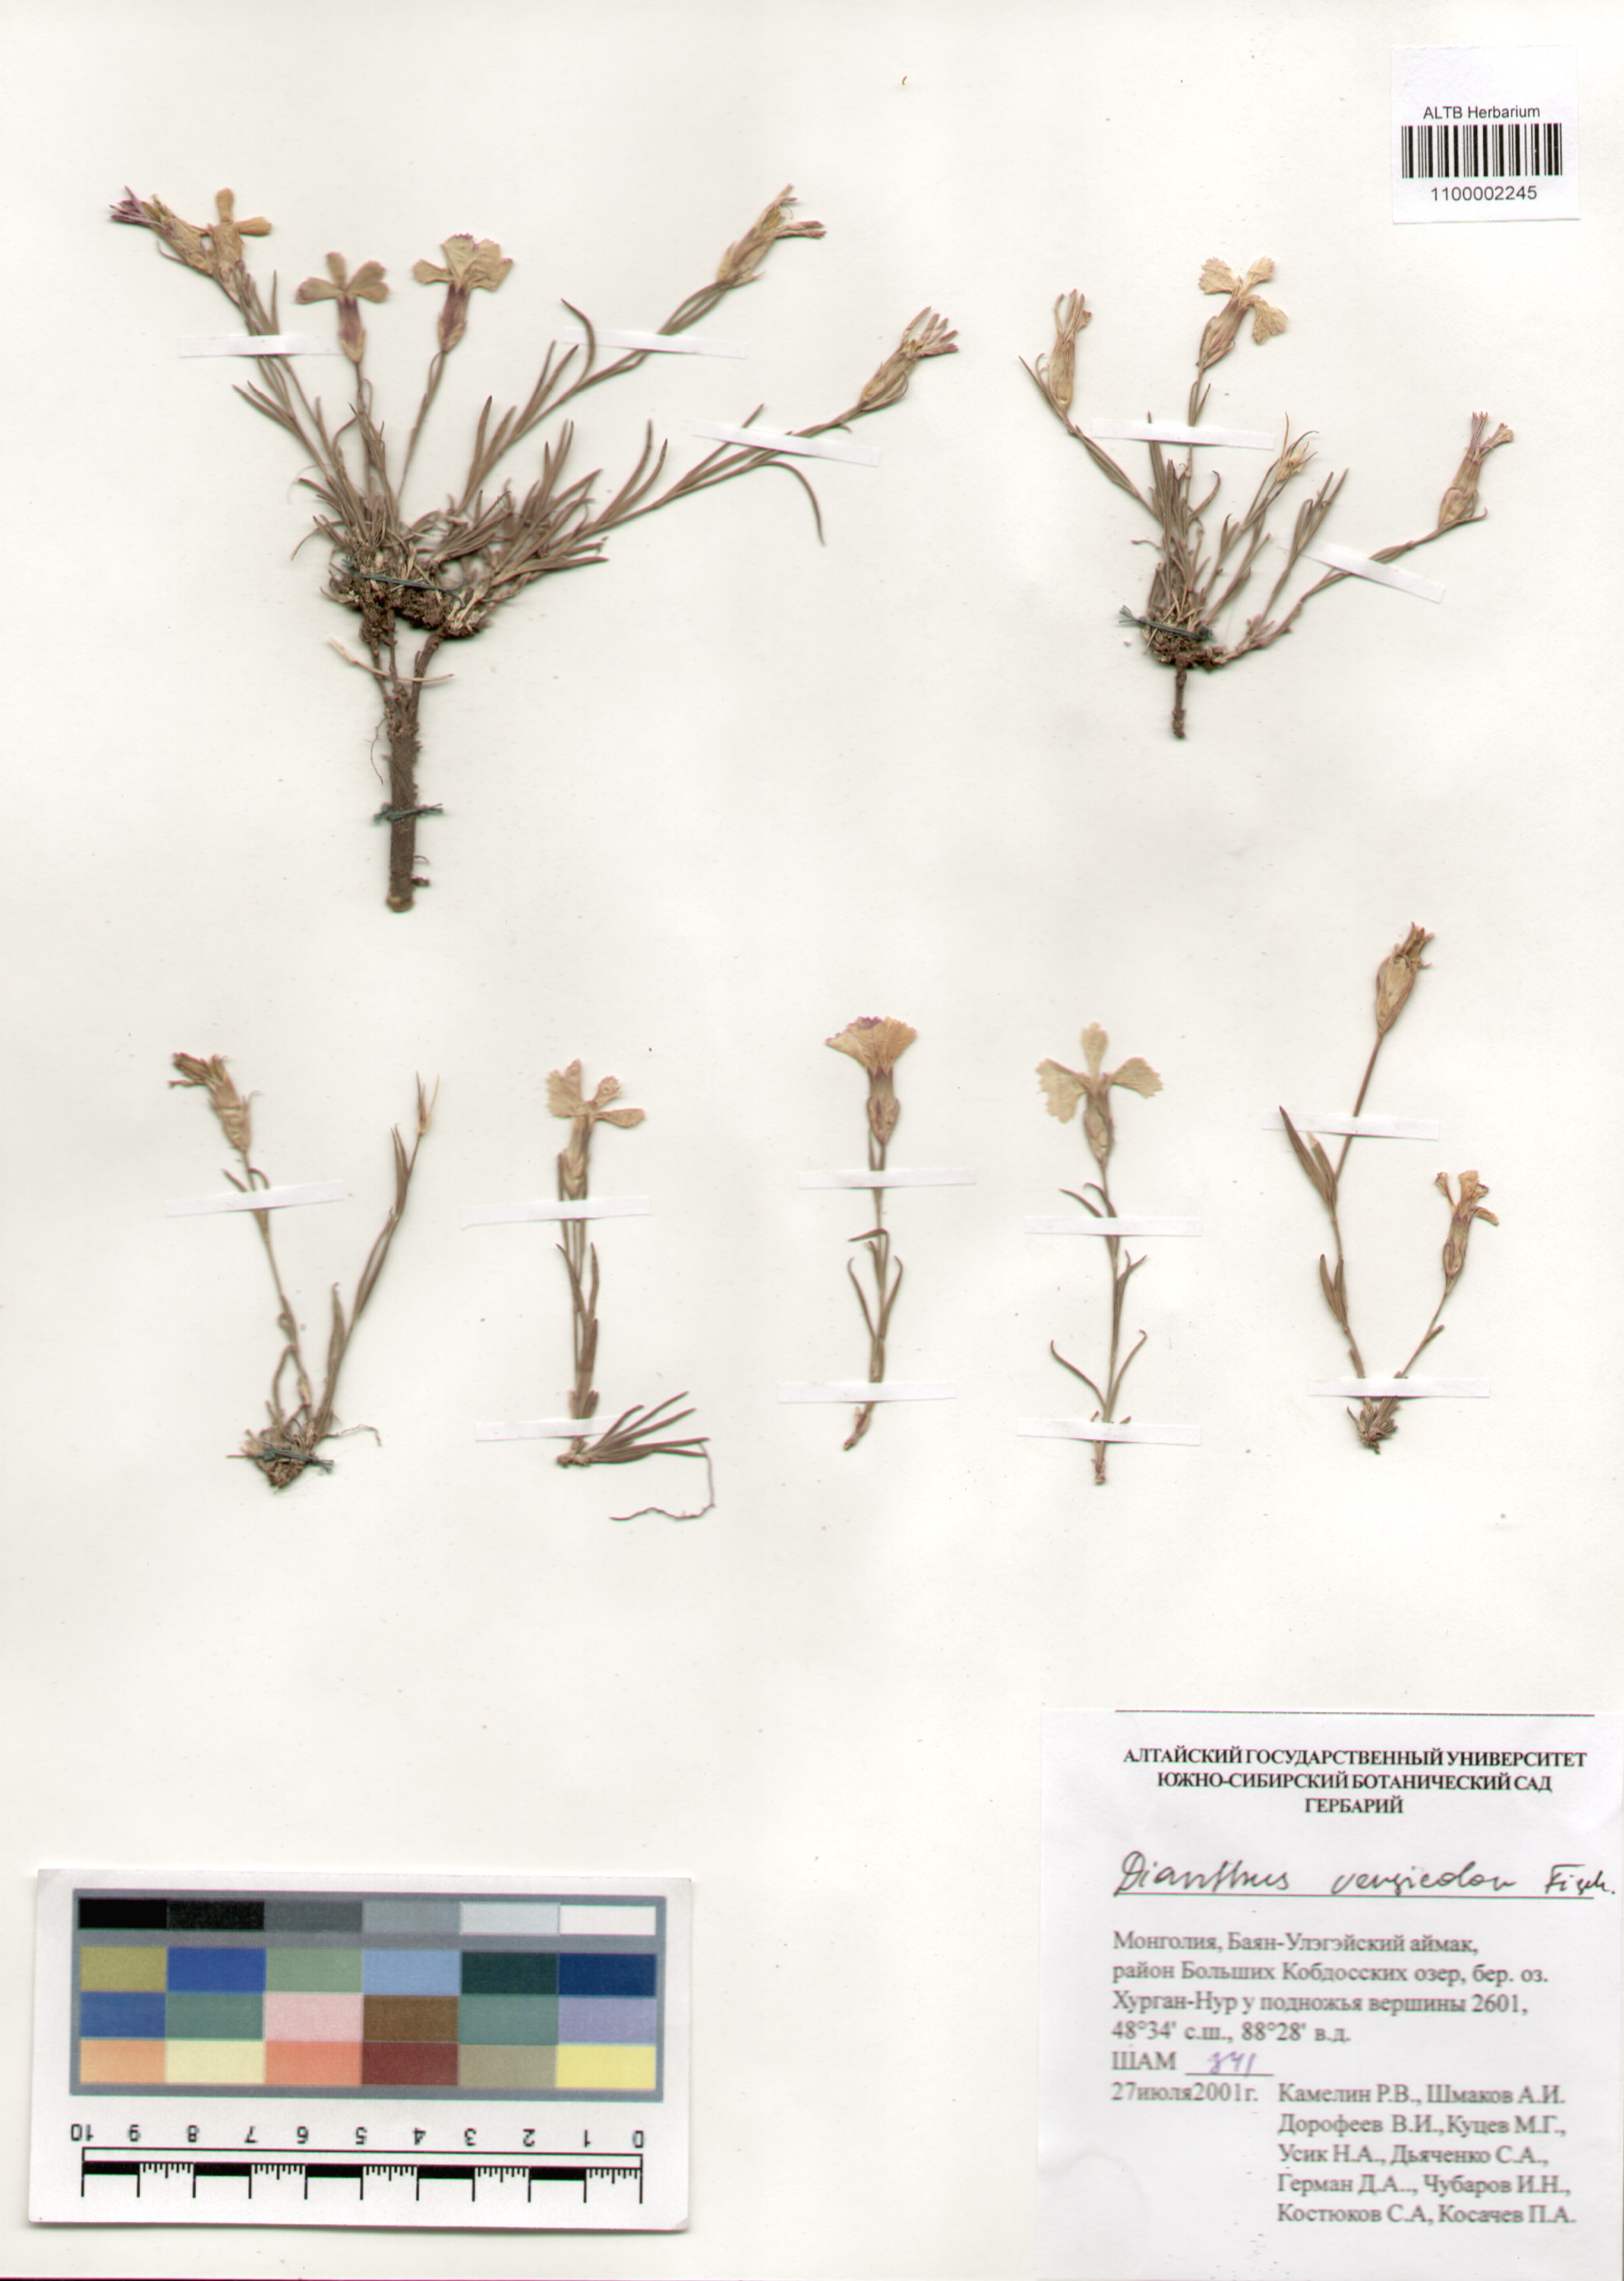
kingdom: Plantae
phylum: Tracheophyta
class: Magnoliopsida
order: Caryophyllales
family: Caryophyllaceae
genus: Dianthus
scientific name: Dianthus chinensis
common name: Rainbow pink
